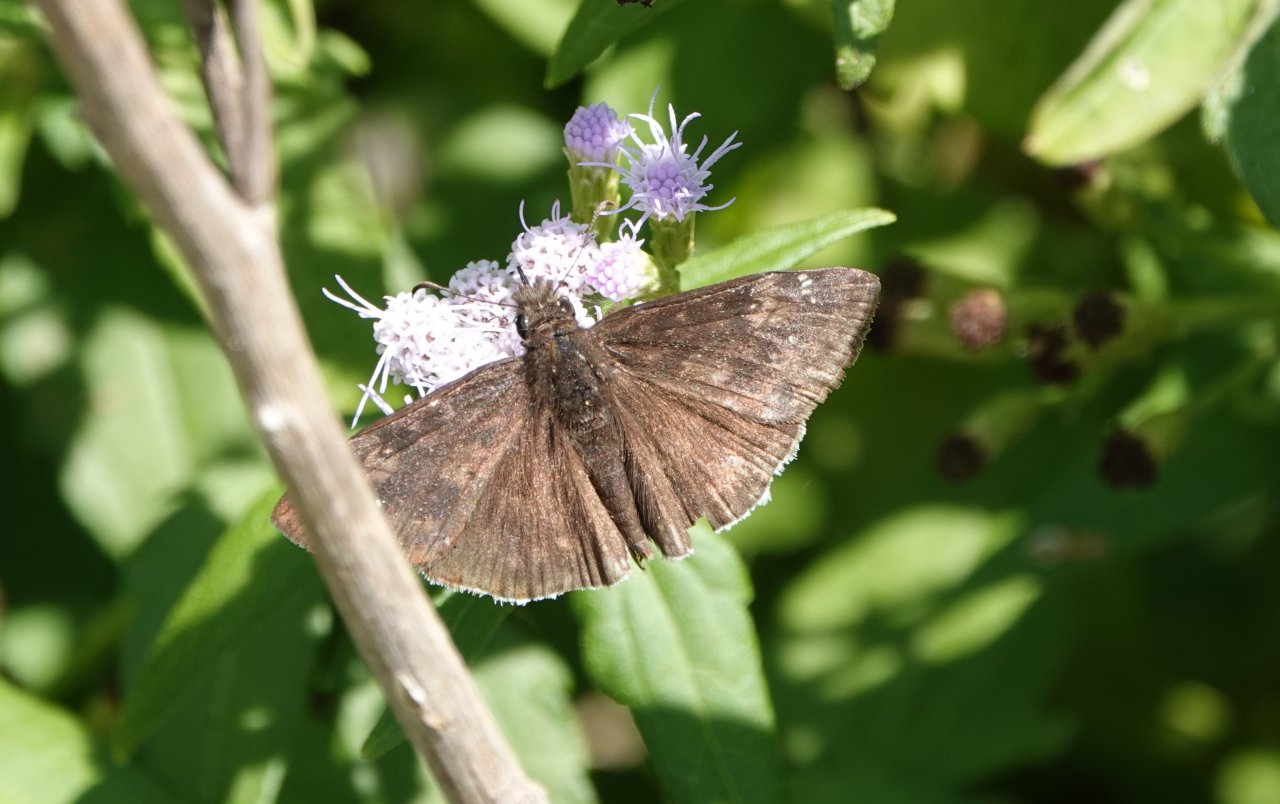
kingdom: Animalia
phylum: Arthropoda
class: Insecta
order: Lepidoptera
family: Hesperiidae
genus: Erynnis
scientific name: Erynnis funeralis
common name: Funereal Duskywing
